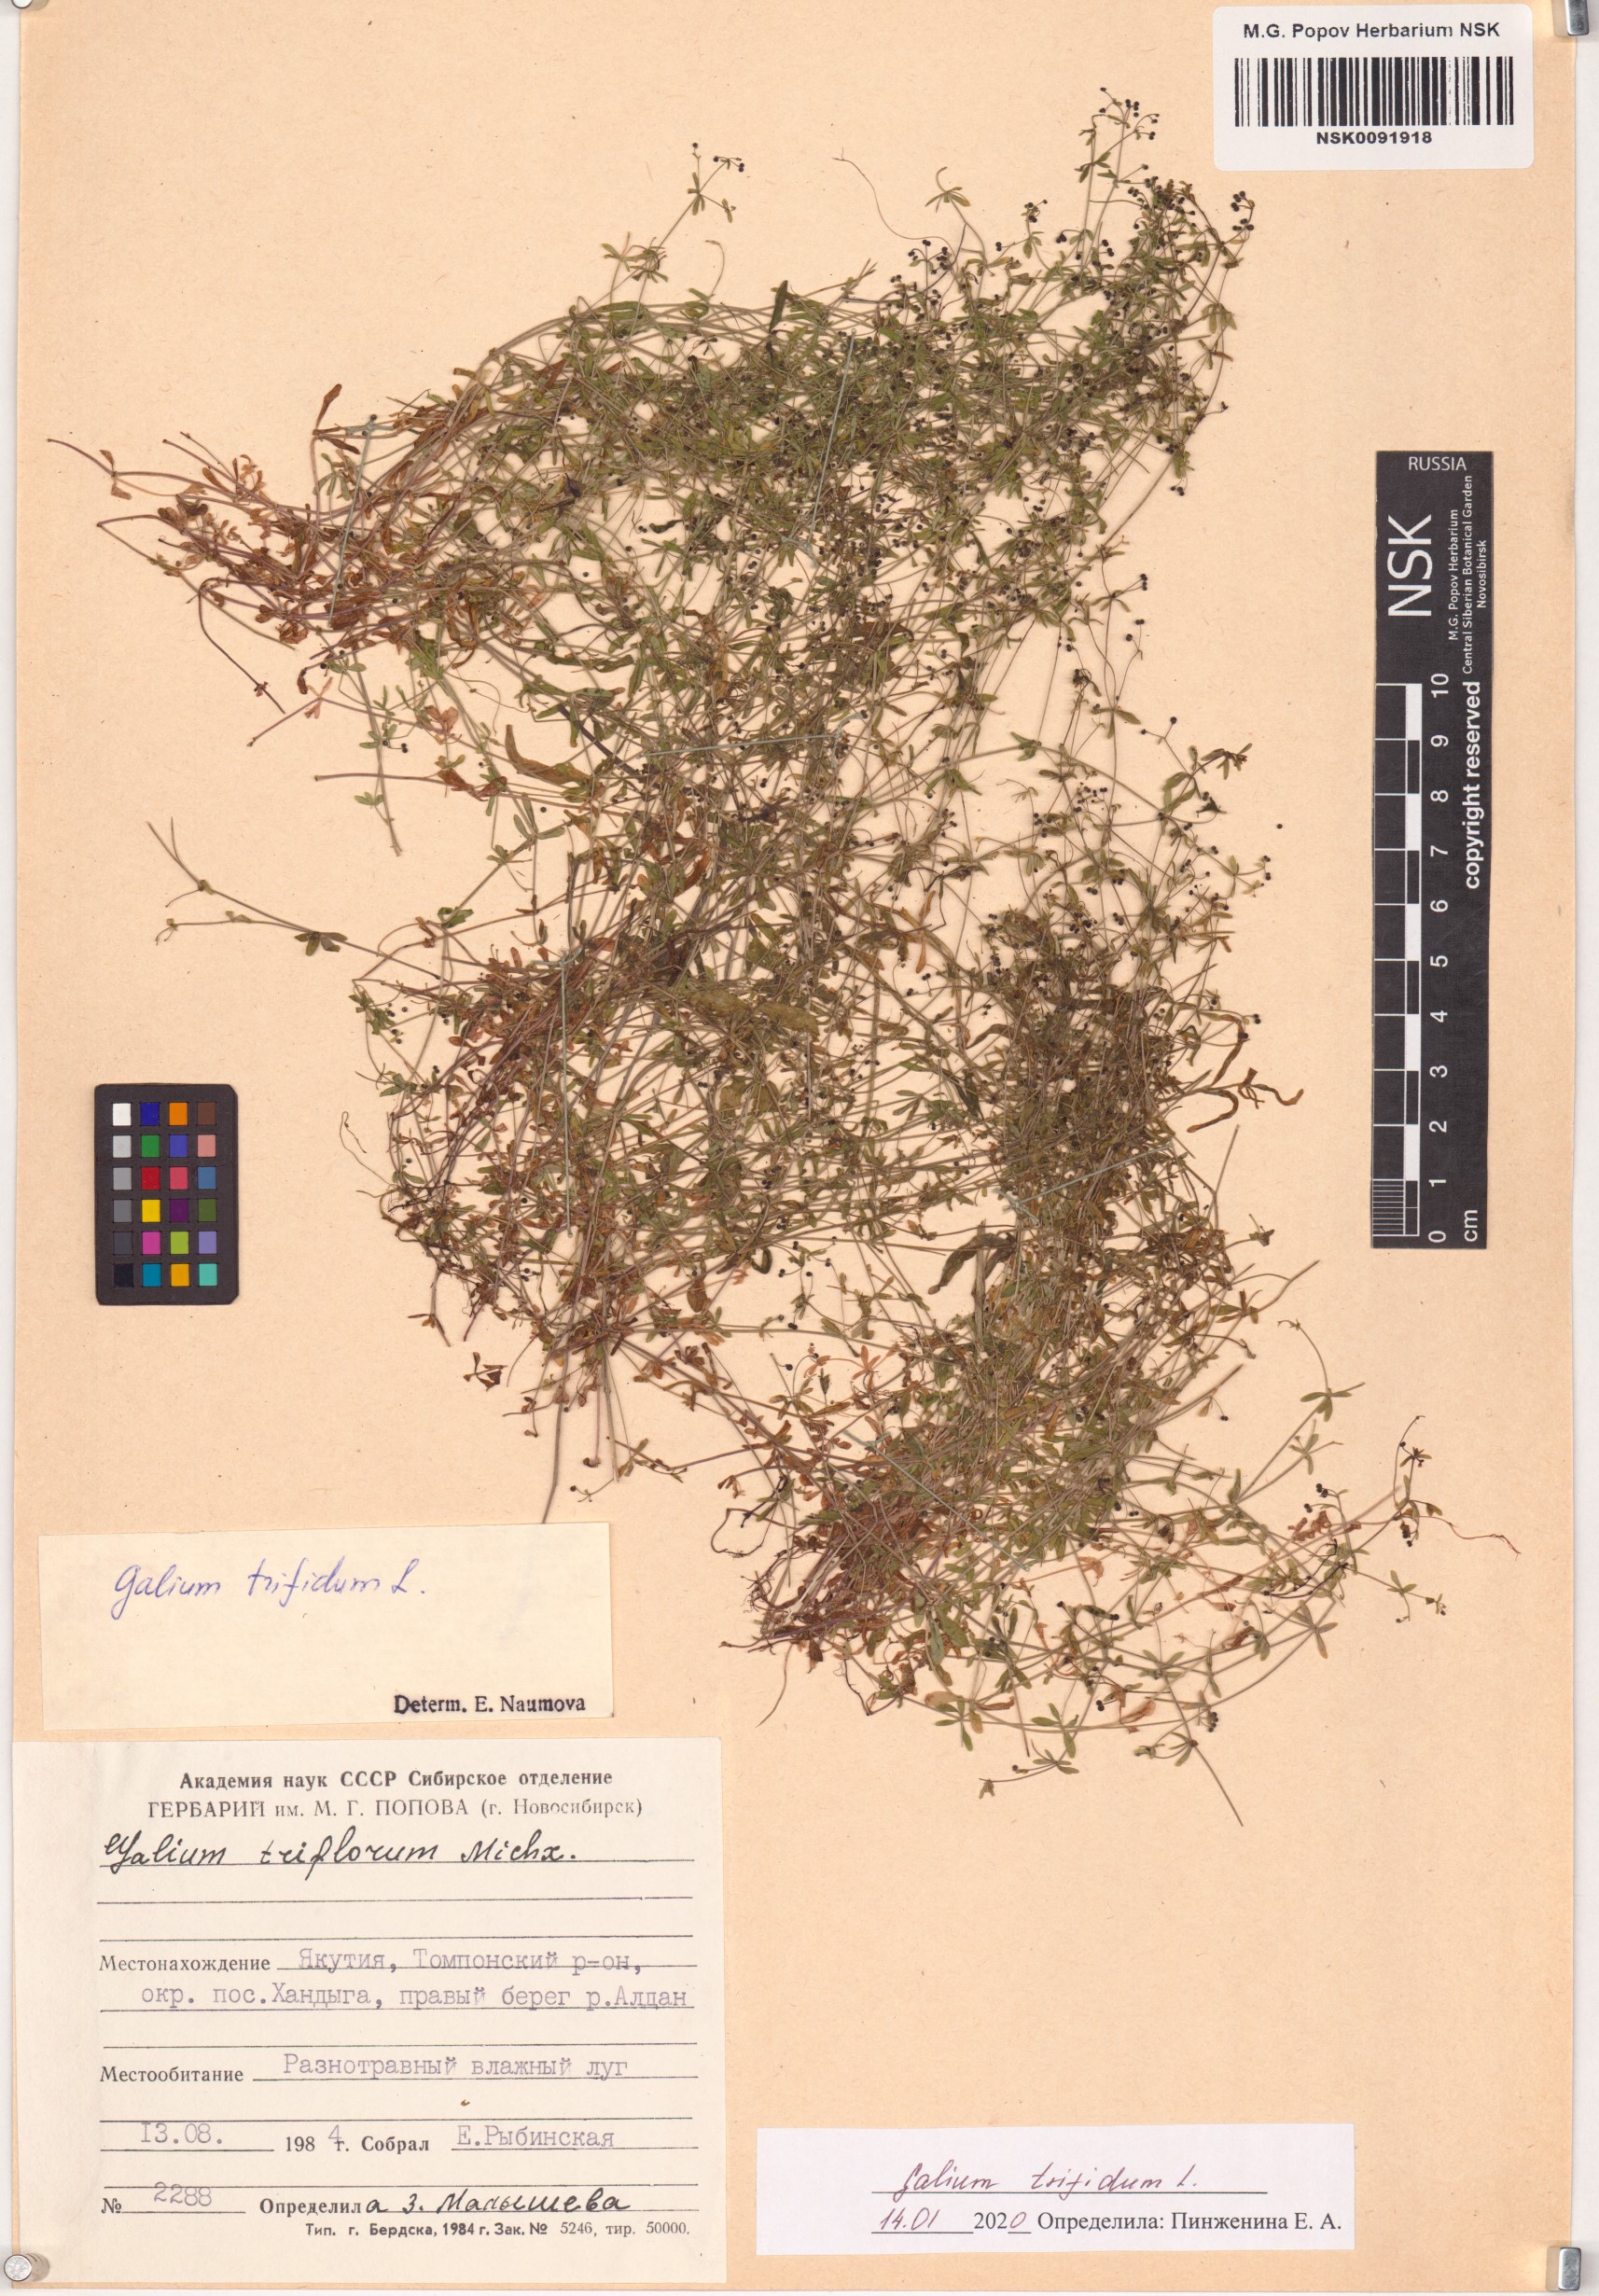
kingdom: Plantae
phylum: Tracheophyta
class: Magnoliopsida
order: Gentianales
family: Rubiaceae
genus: Galium
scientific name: Galium trifidum
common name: Small bedstraw
